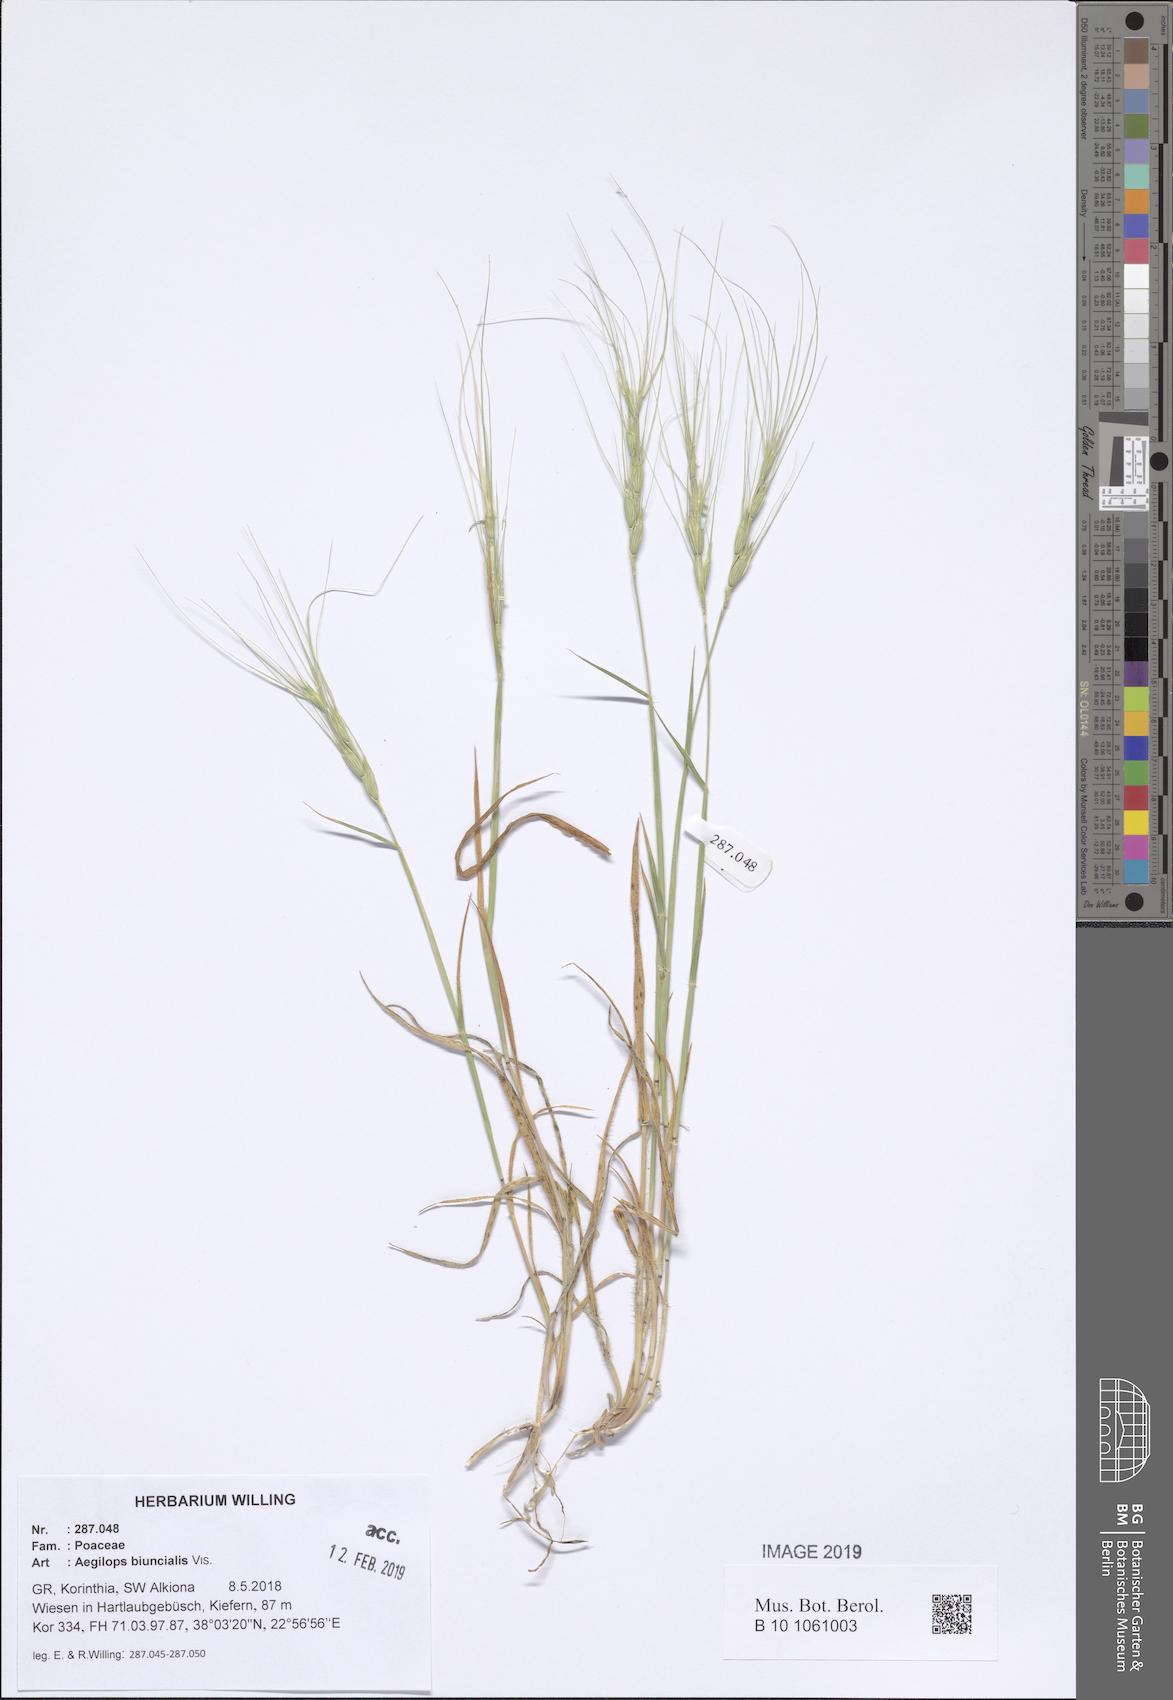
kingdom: Plantae
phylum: Tracheophyta
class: Liliopsida
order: Poales
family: Poaceae
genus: Aegilops
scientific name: Aegilops biuncialis
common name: Mediterranean aegilops
